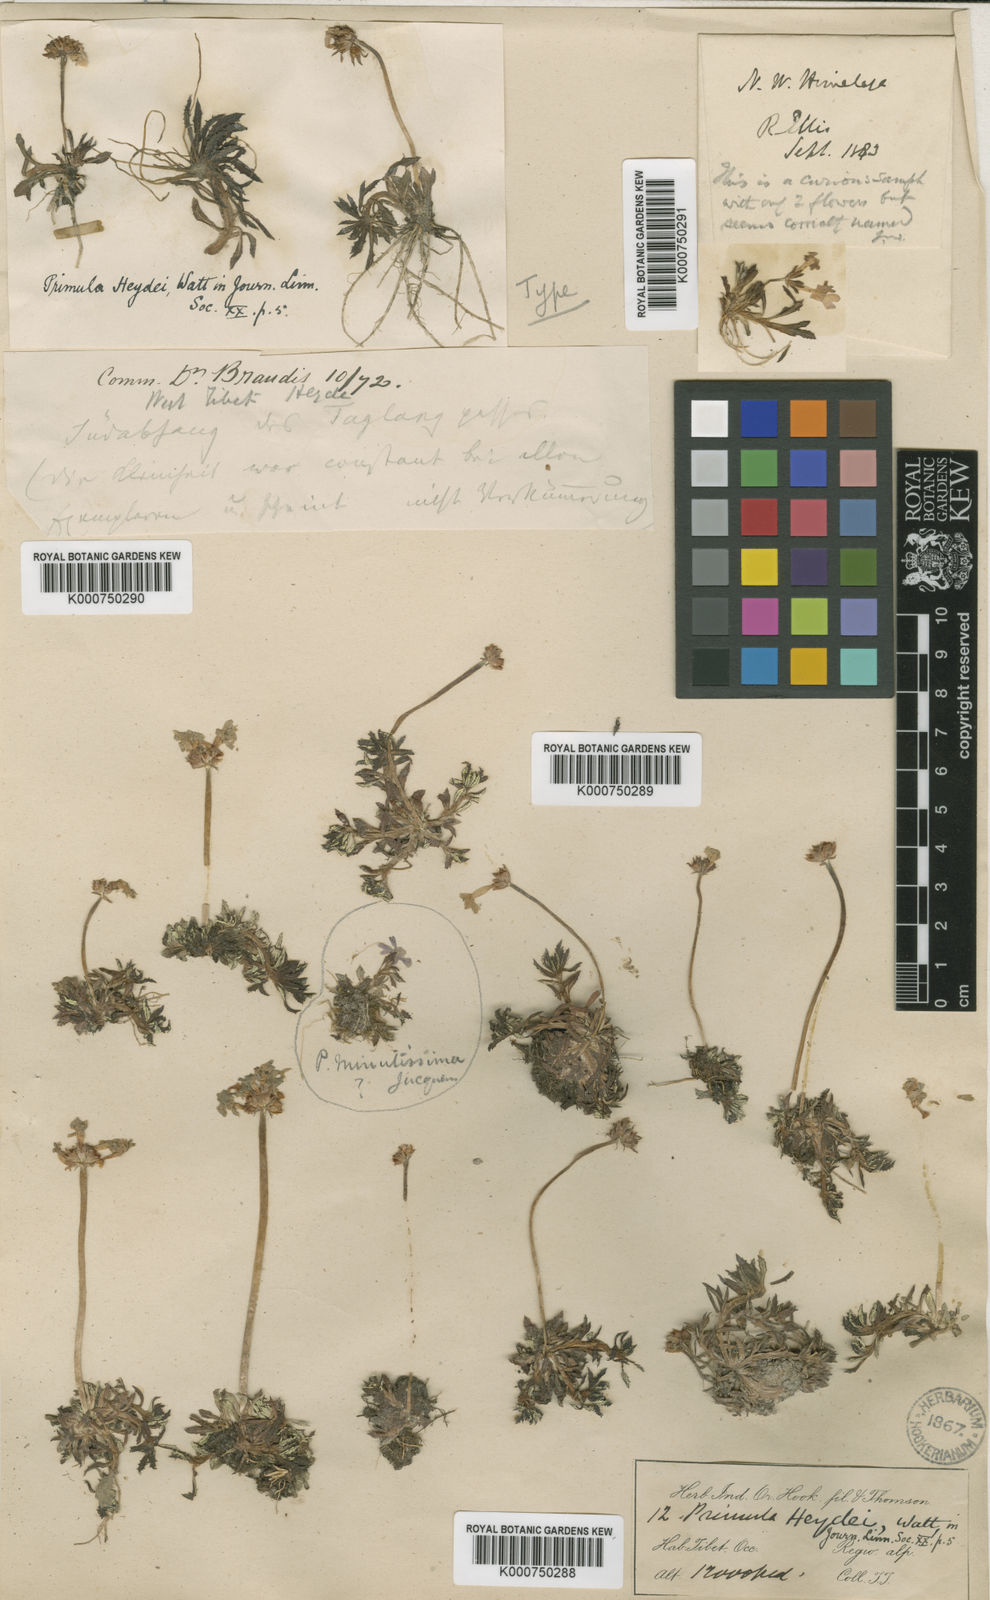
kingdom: Plantae
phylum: Tracheophyta
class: Magnoliopsida
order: Ericales
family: Primulaceae
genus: Primula
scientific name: Primula minutissima
